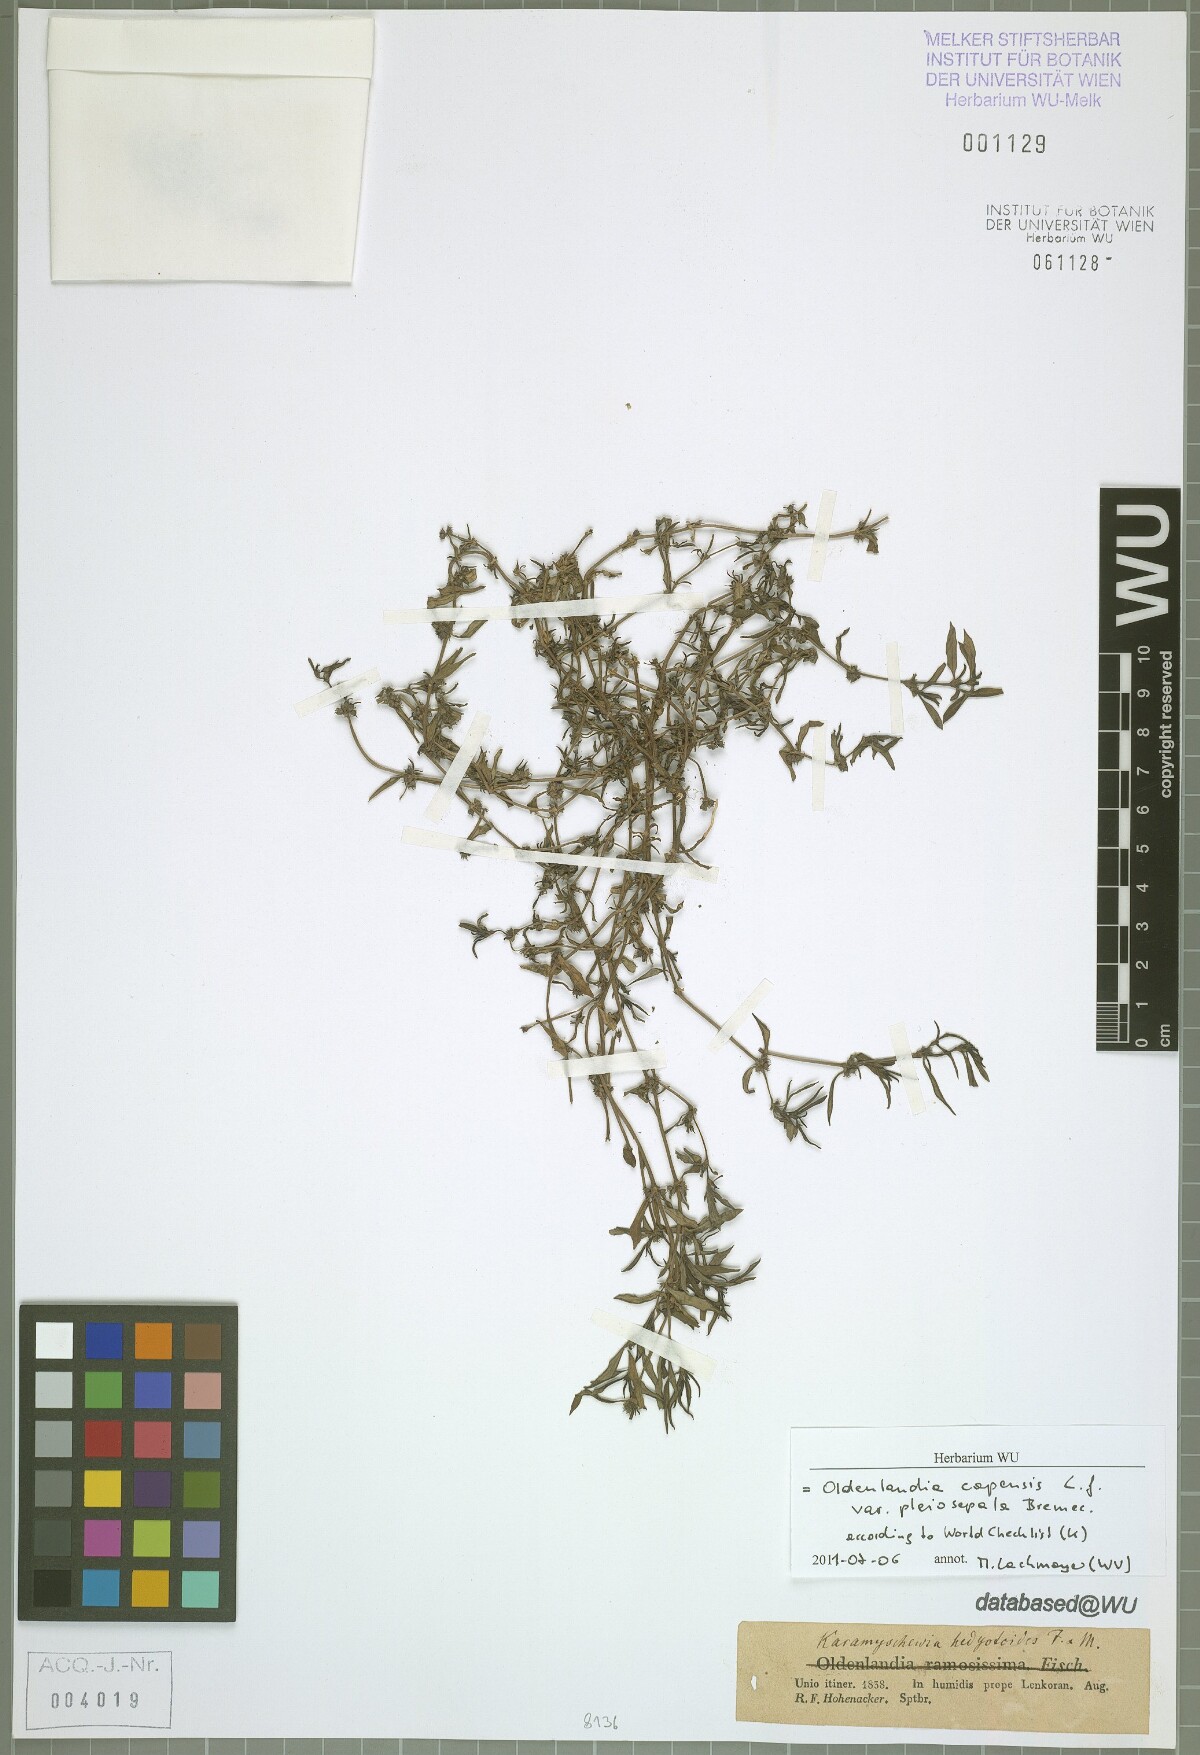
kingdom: Plantae
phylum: Tracheophyta
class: Magnoliopsida
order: Gentianales
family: Rubiaceae
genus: Oldenlandia
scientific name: Oldenlandia capensis
